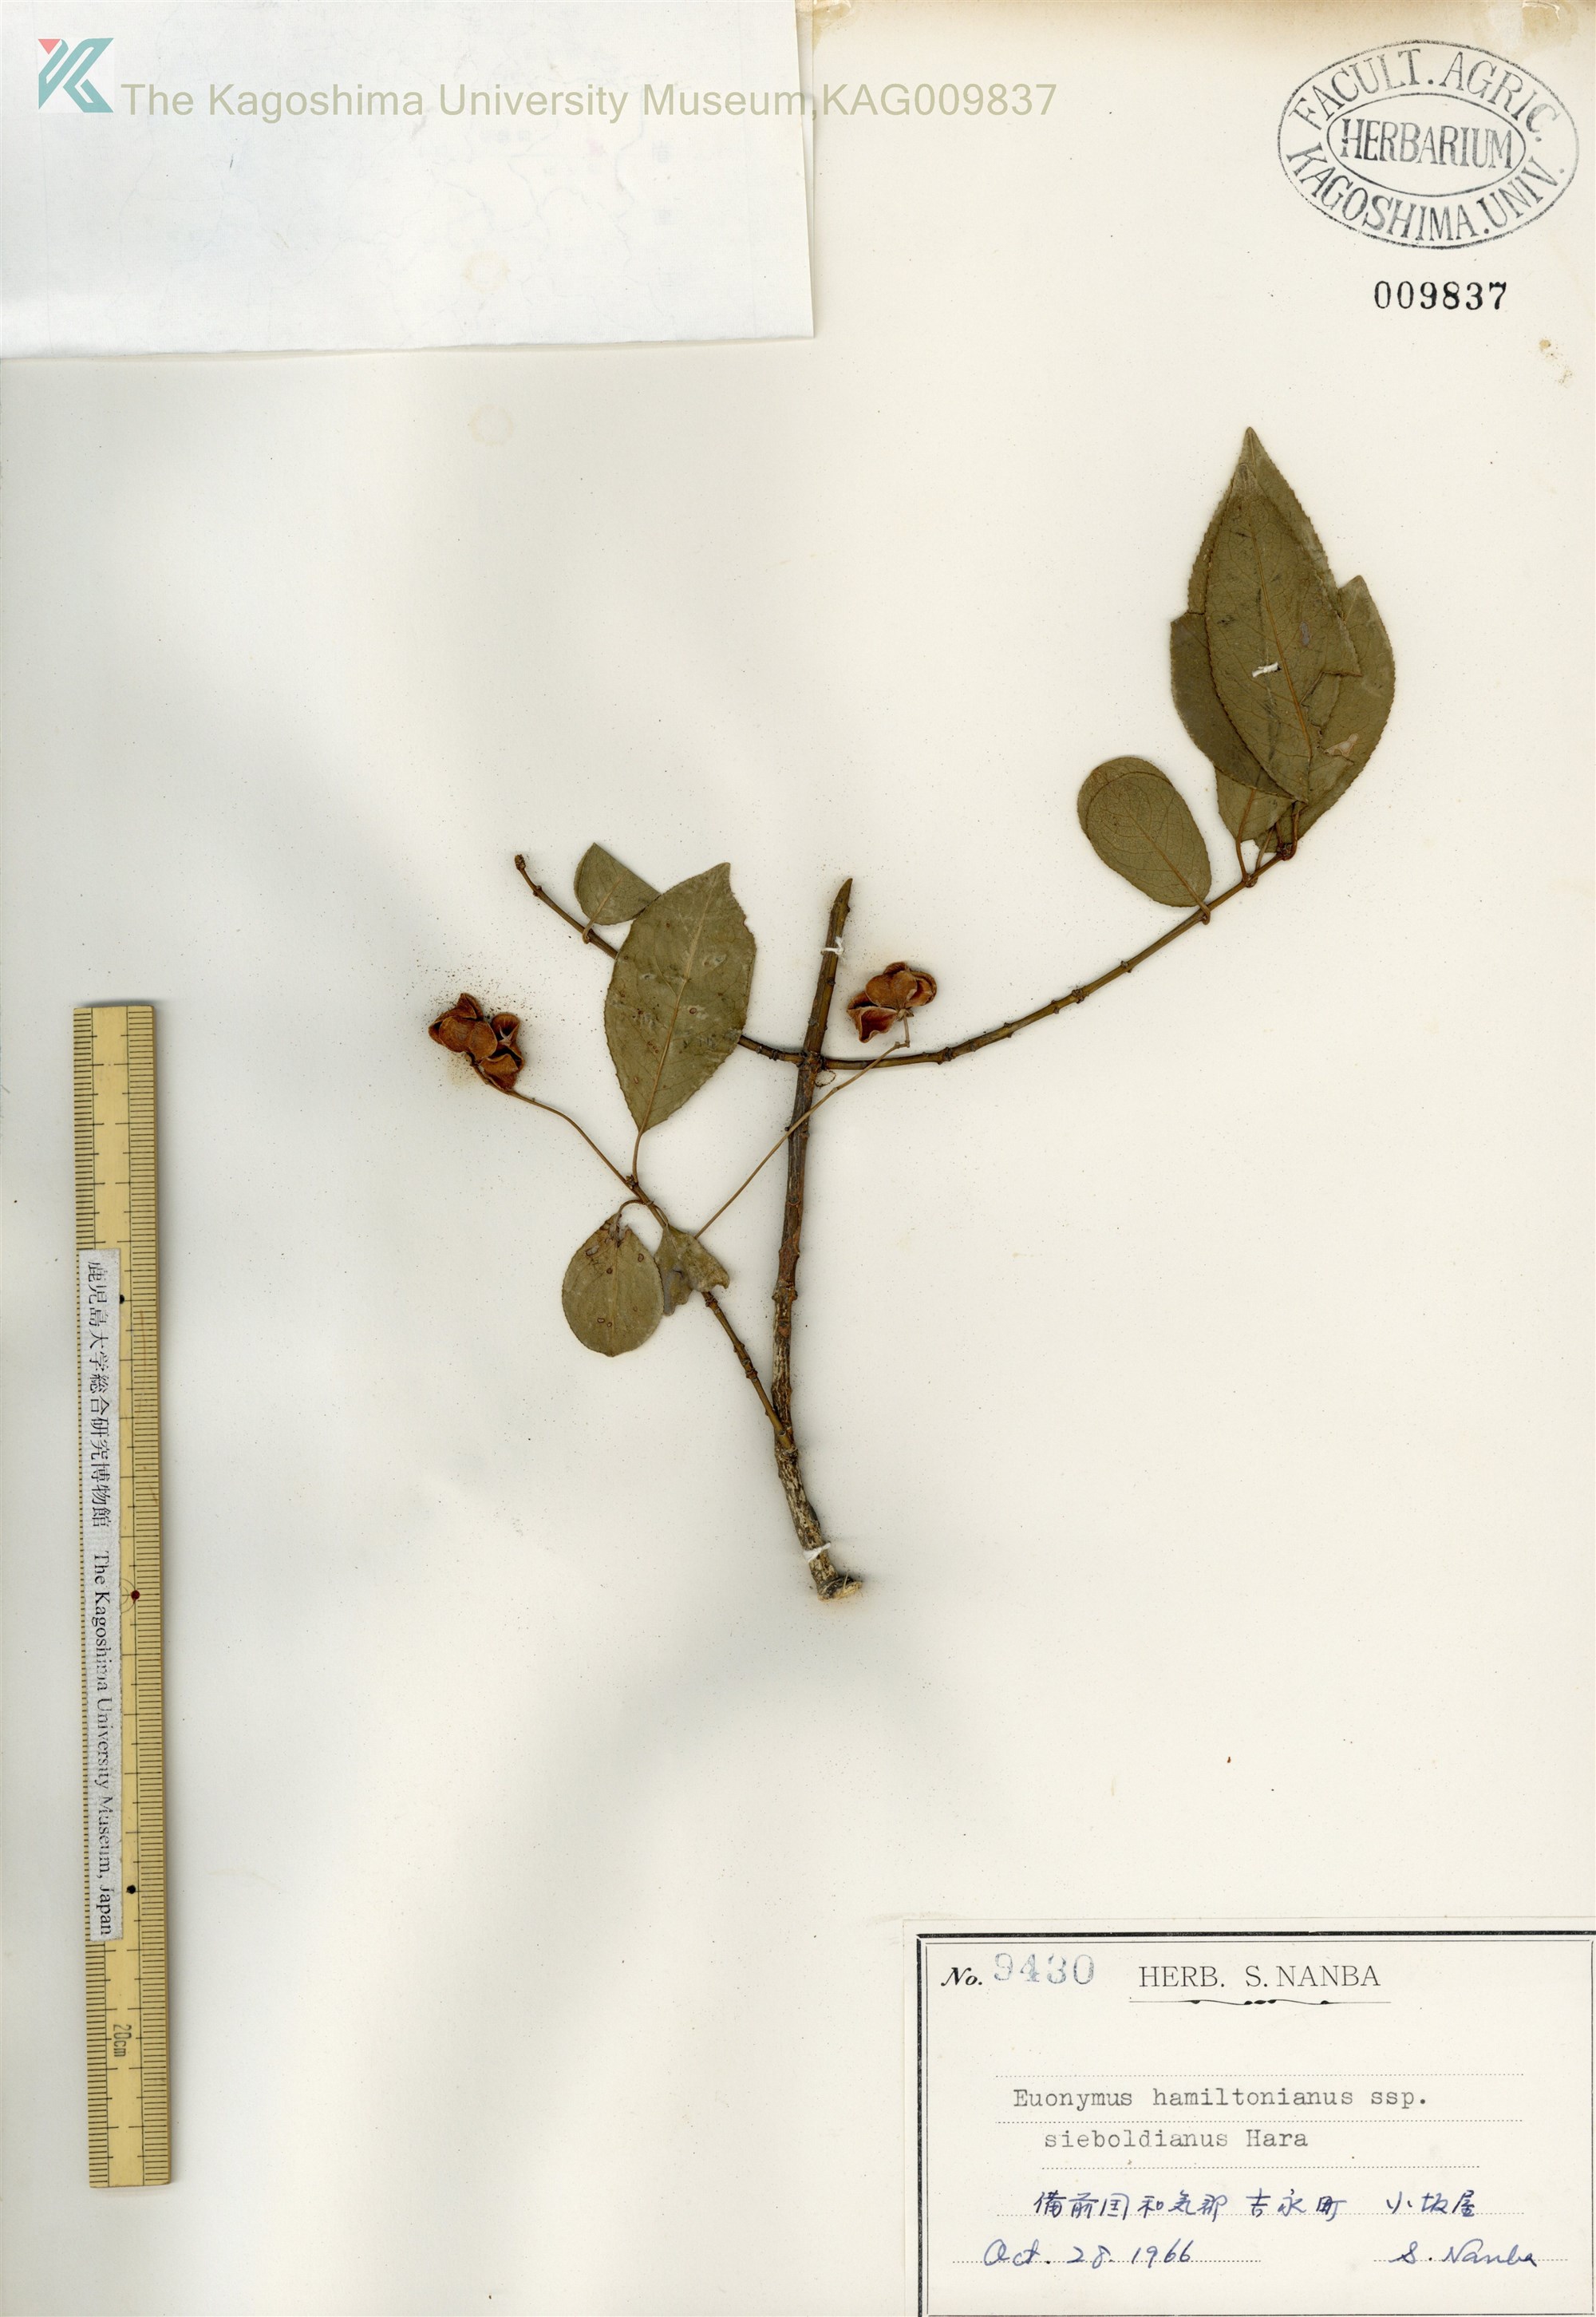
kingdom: Plantae
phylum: Tracheophyta
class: Magnoliopsida
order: Celastrales
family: Celastraceae
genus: Euonymus
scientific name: Euonymus hamiltonianus
